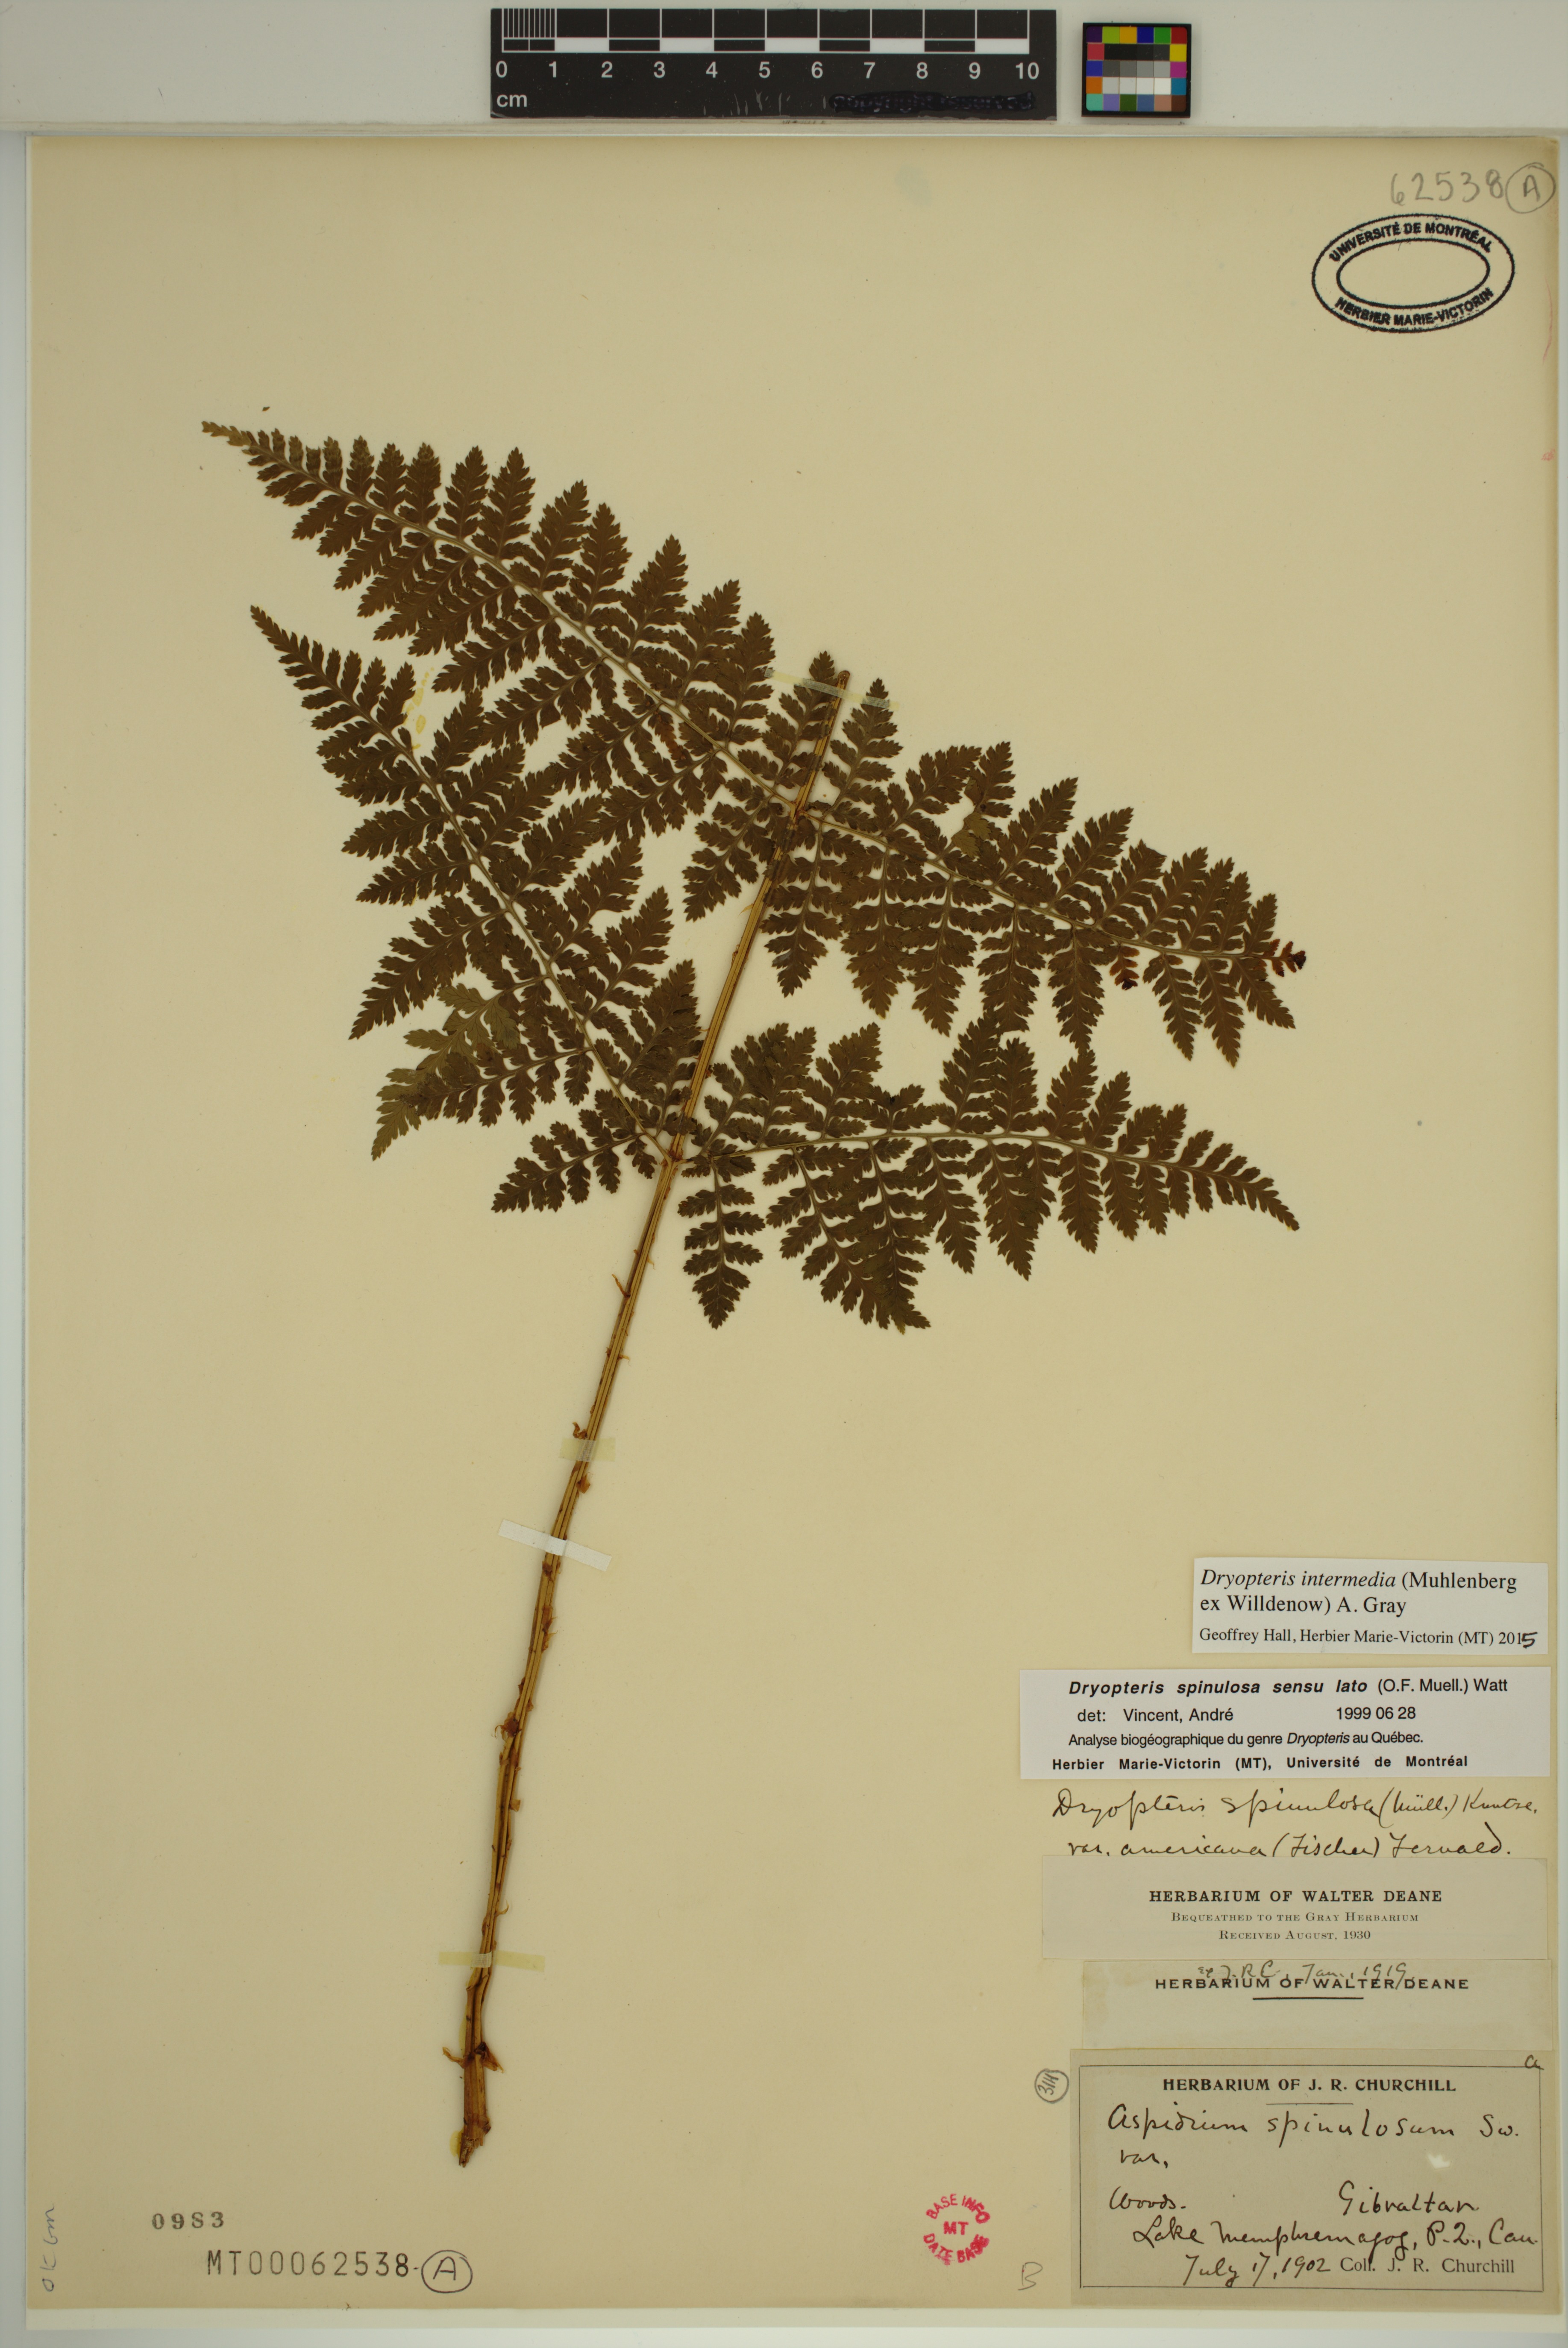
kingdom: Plantae
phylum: Tracheophyta
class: Polypodiopsida
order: Polypodiales
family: Dryopteridaceae
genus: Dryopteris
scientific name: Dryopteris intermedia
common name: Evergreen wood fern
